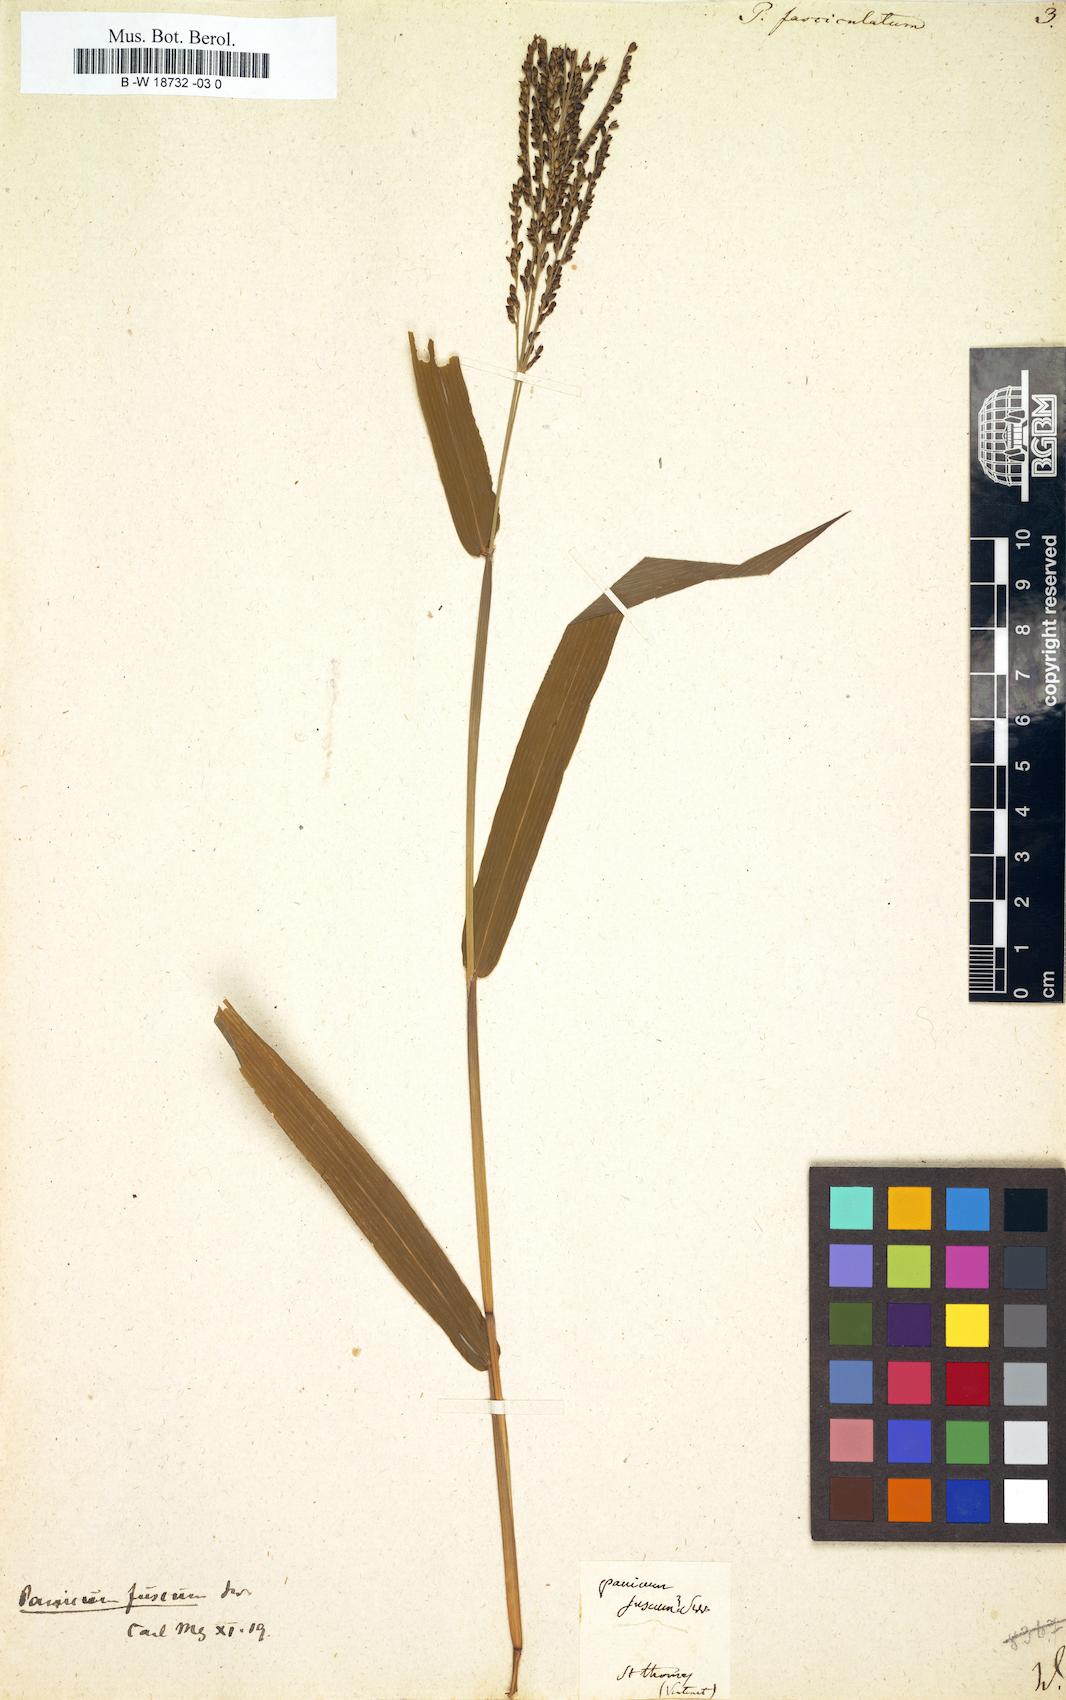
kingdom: Plantae
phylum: Tracheophyta
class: Liliopsida
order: Poales
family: Poaceae
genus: Panicum
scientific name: Panicum fasciculatum
